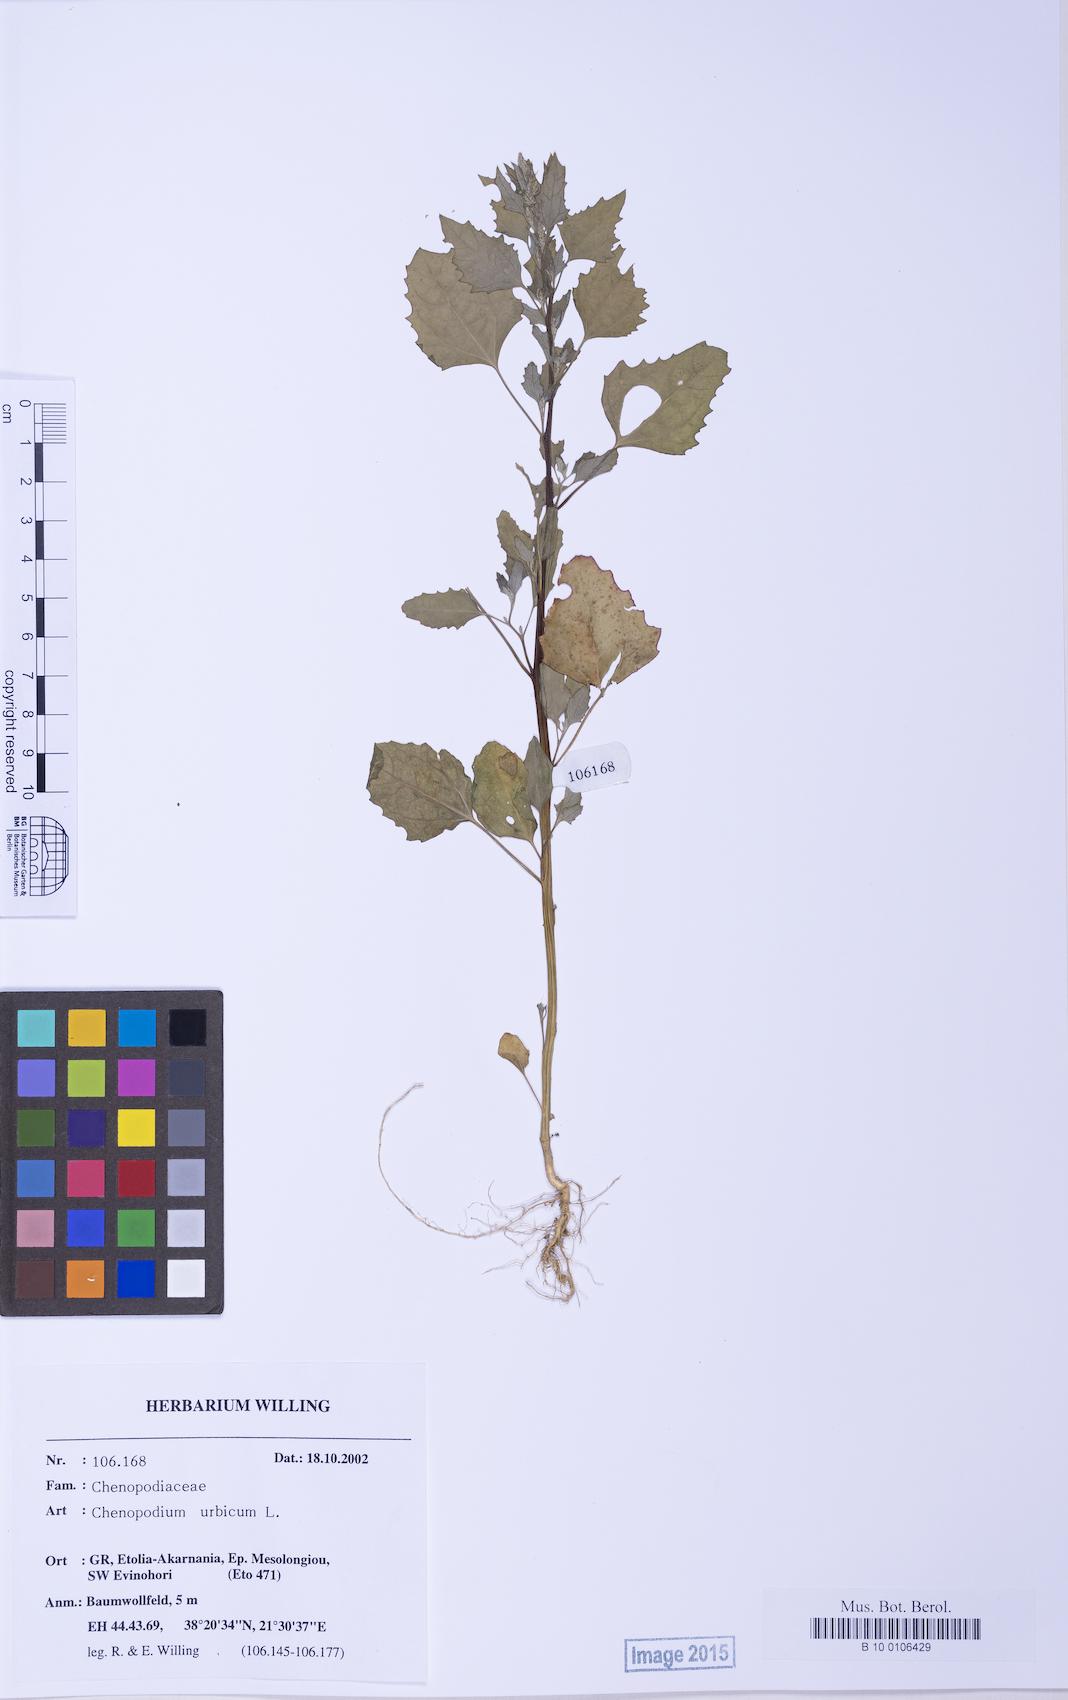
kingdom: Plantae
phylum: Tracheophyta
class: Magnoliopsida
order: Caryophyllales
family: Amaranthaceae
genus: Chenopodium
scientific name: Chenopodium album
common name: Fat-hen
